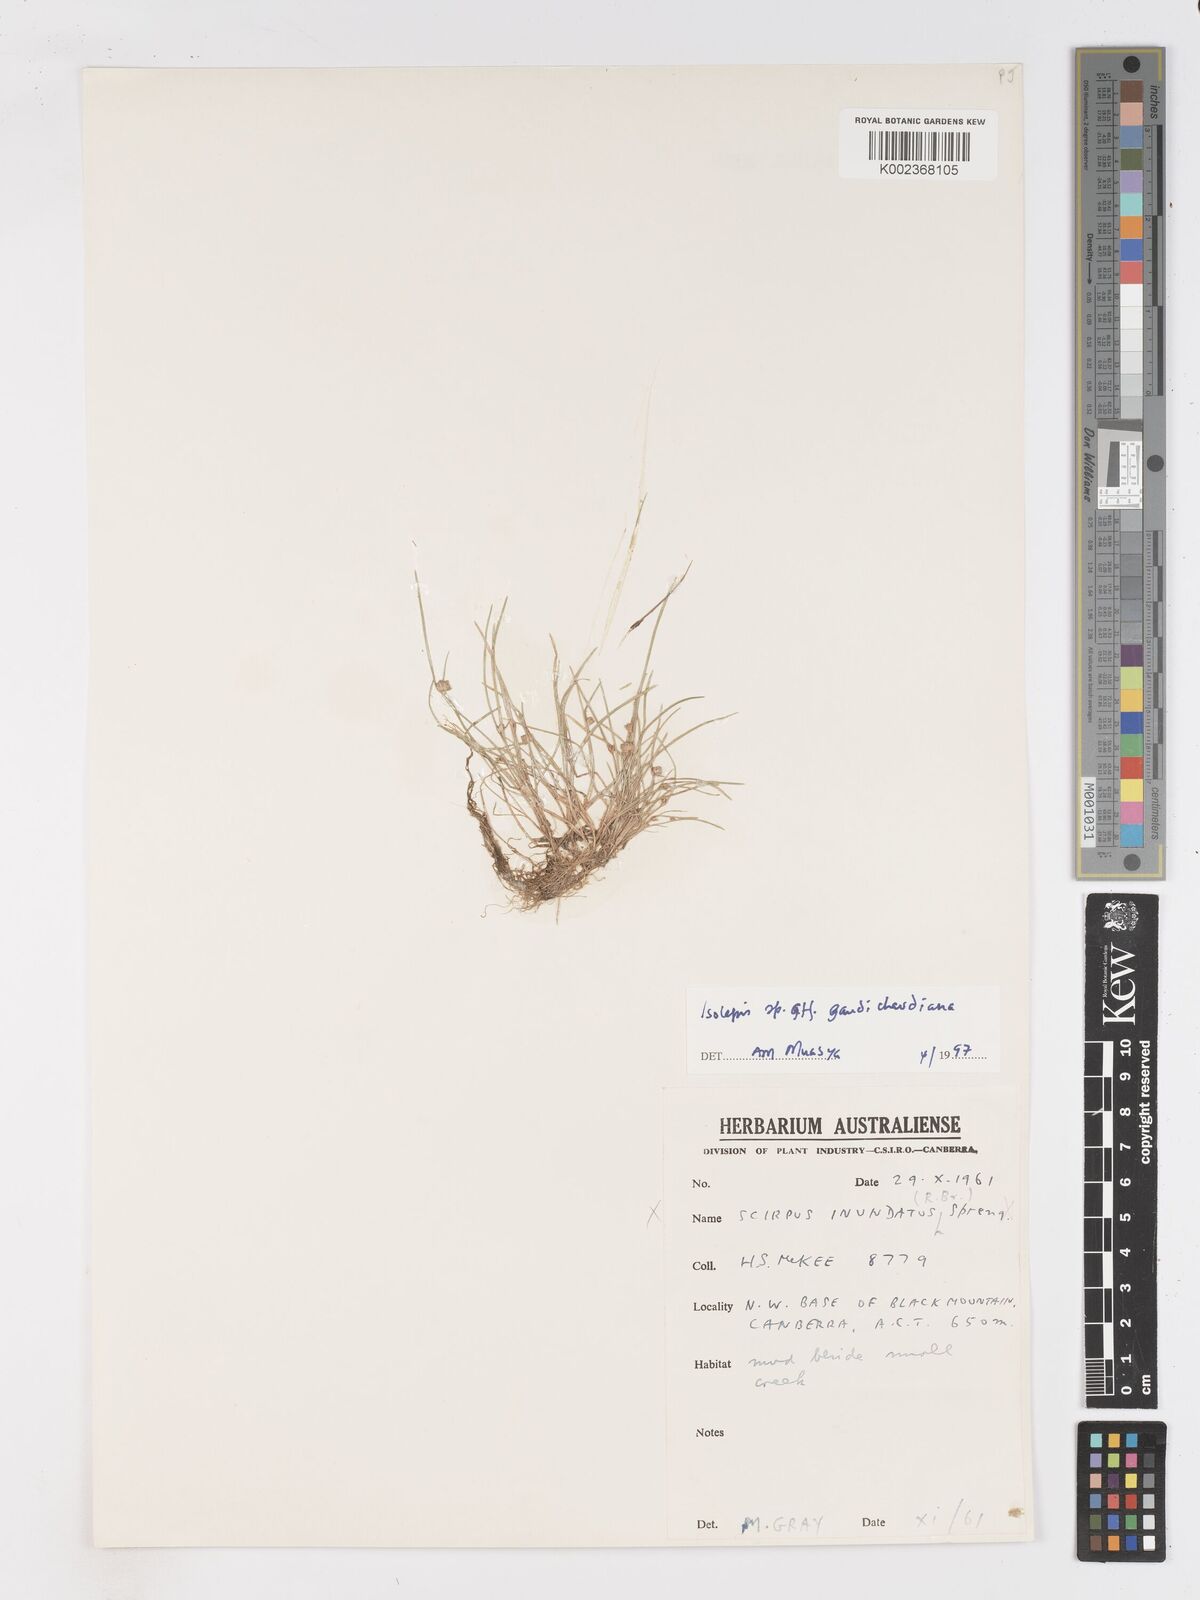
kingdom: Plantae
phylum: Tracheophyta
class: Liliopsida
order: Poales
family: Cyperaceae
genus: Isolepis
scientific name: Isolepis gaudichaudiana
